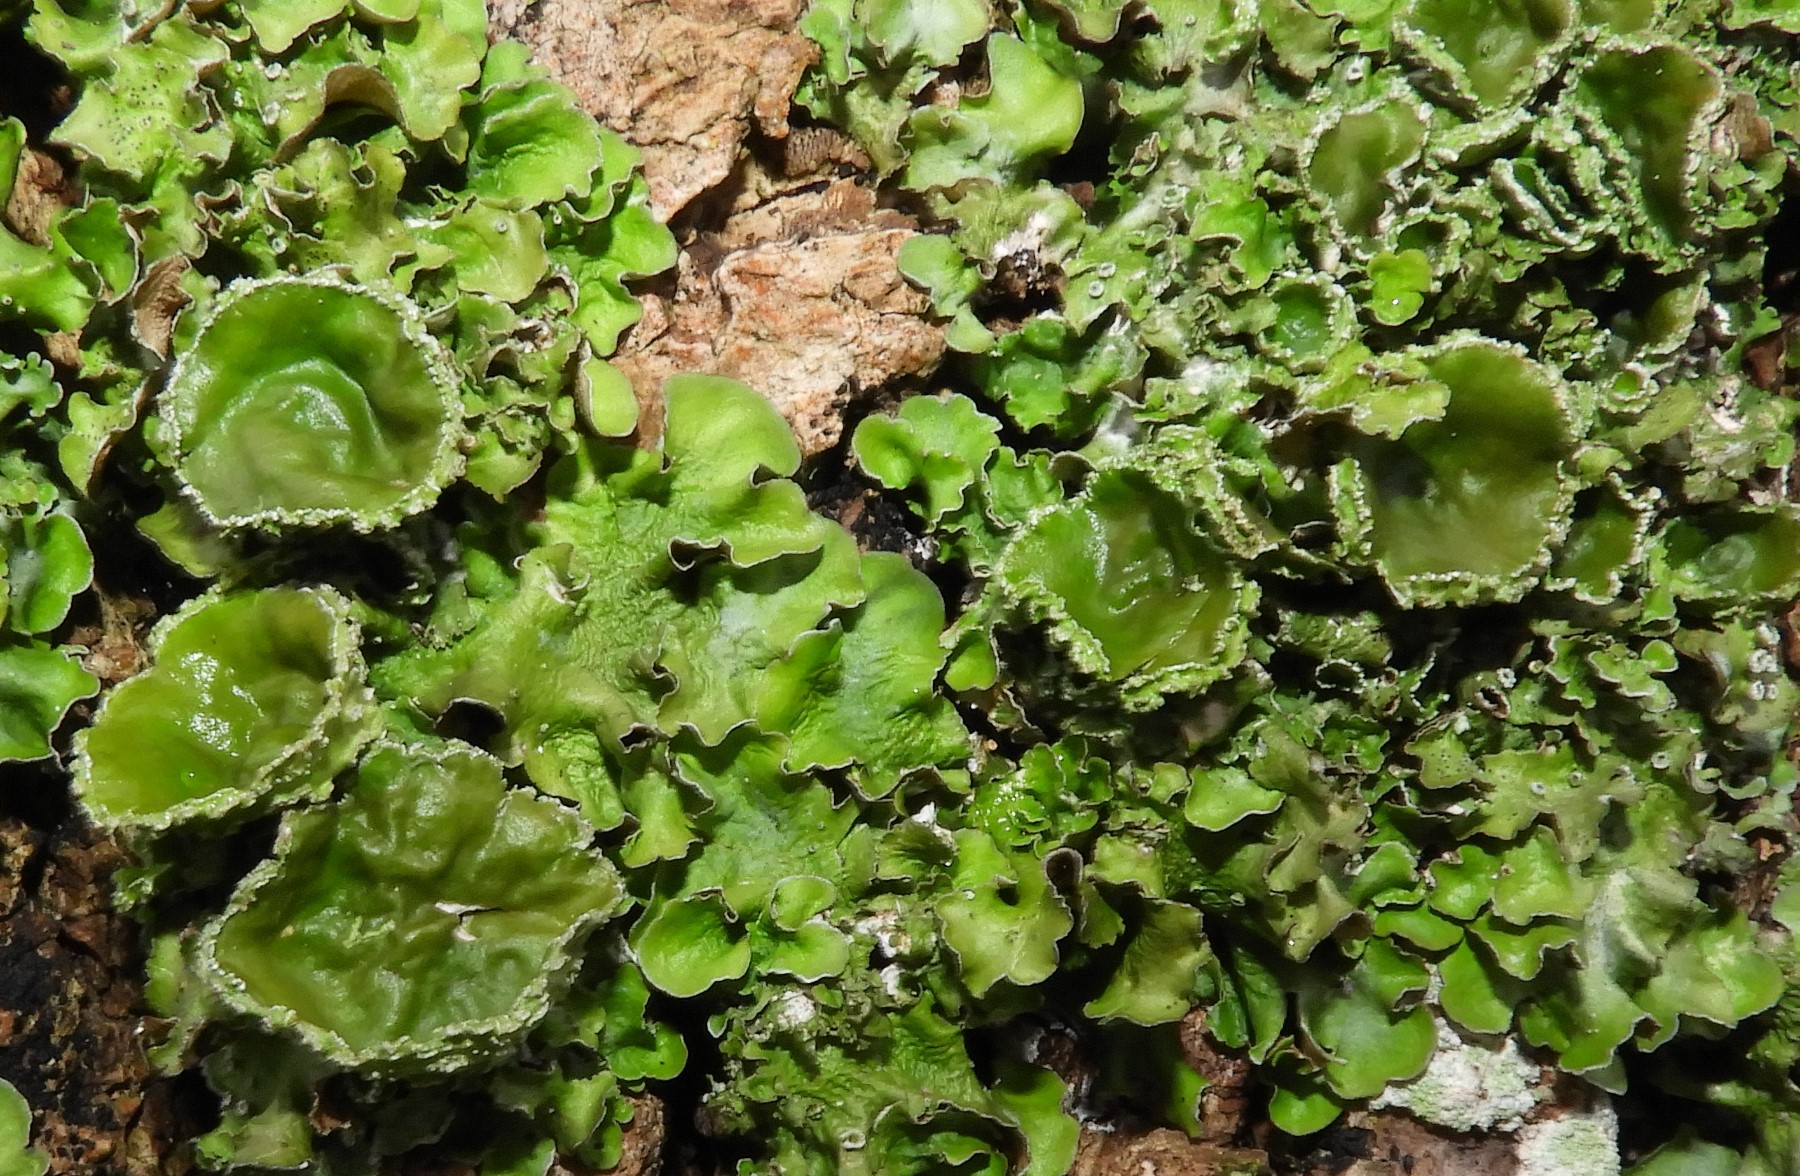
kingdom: Fungi
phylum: Ascomycota
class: Lecanoromycetes
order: Lecanorales
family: Parmeliaceae
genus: Pleurosticta
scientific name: Pleurosticta acetabulum
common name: stor skållav
